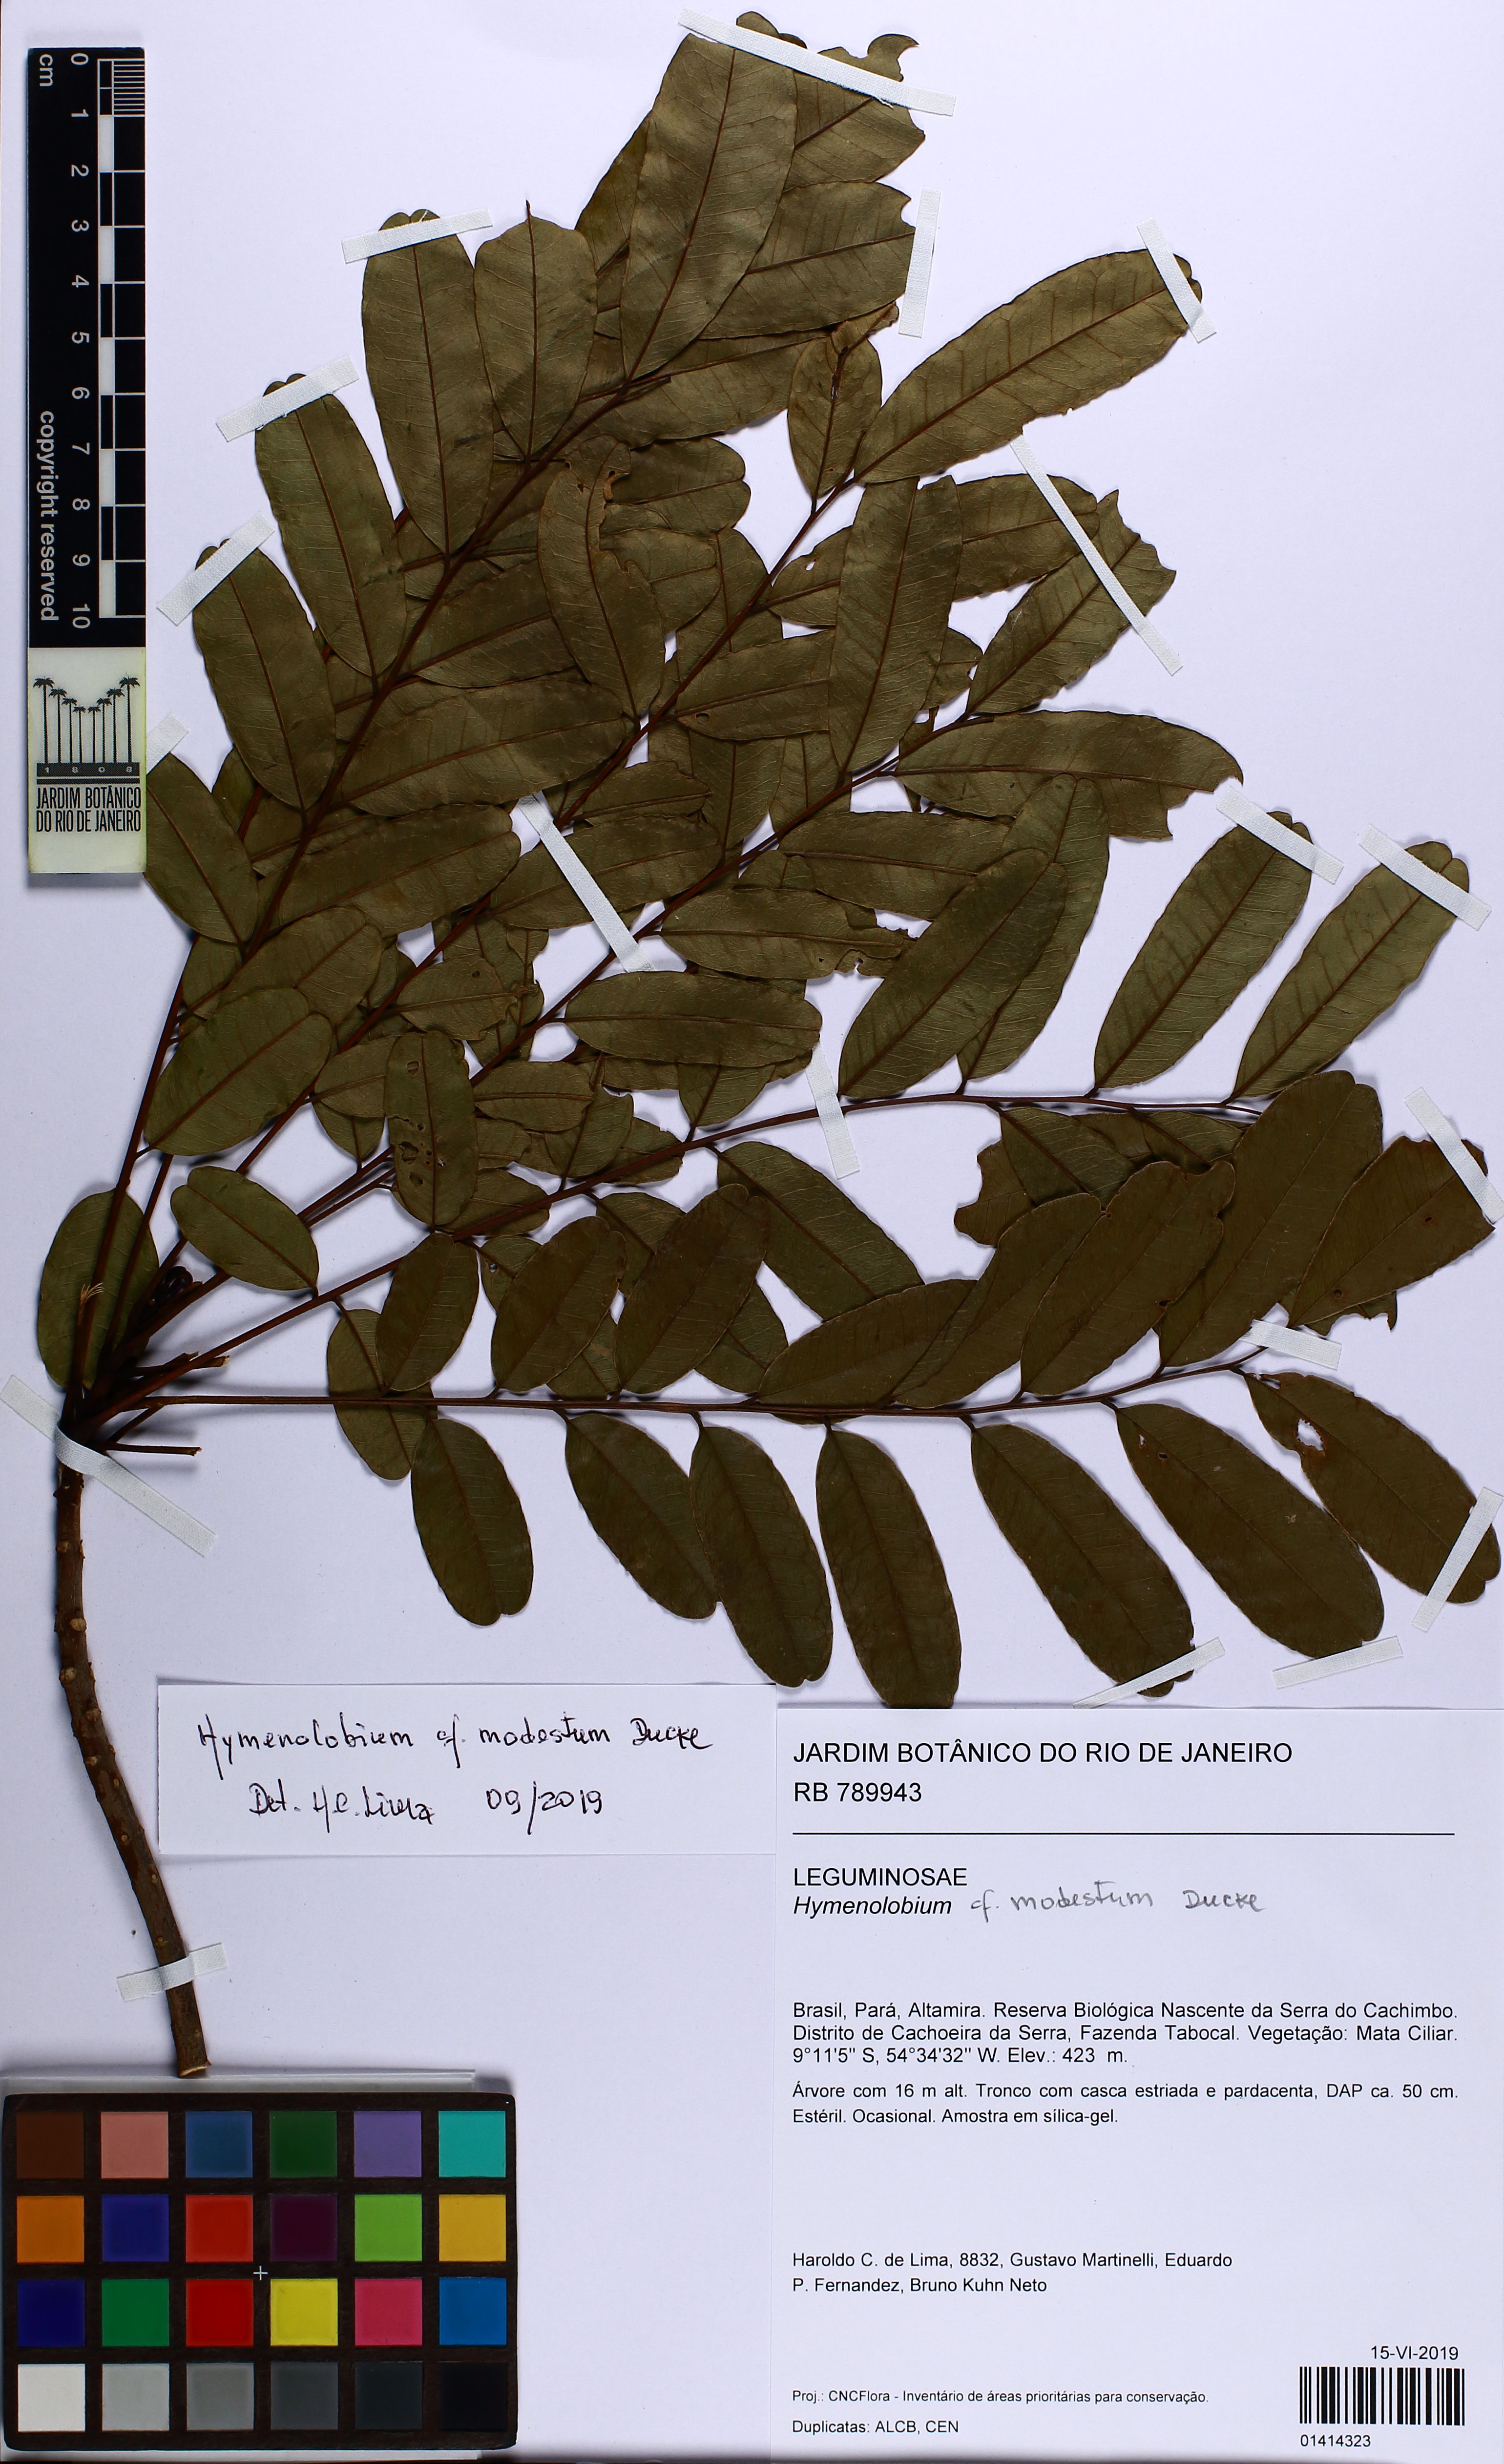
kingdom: Plantae
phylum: Tracheophyta
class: Magnoliopsida
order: Fabales
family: Fabaceae
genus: Hymenolobium
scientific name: Hymenolobium modestum
